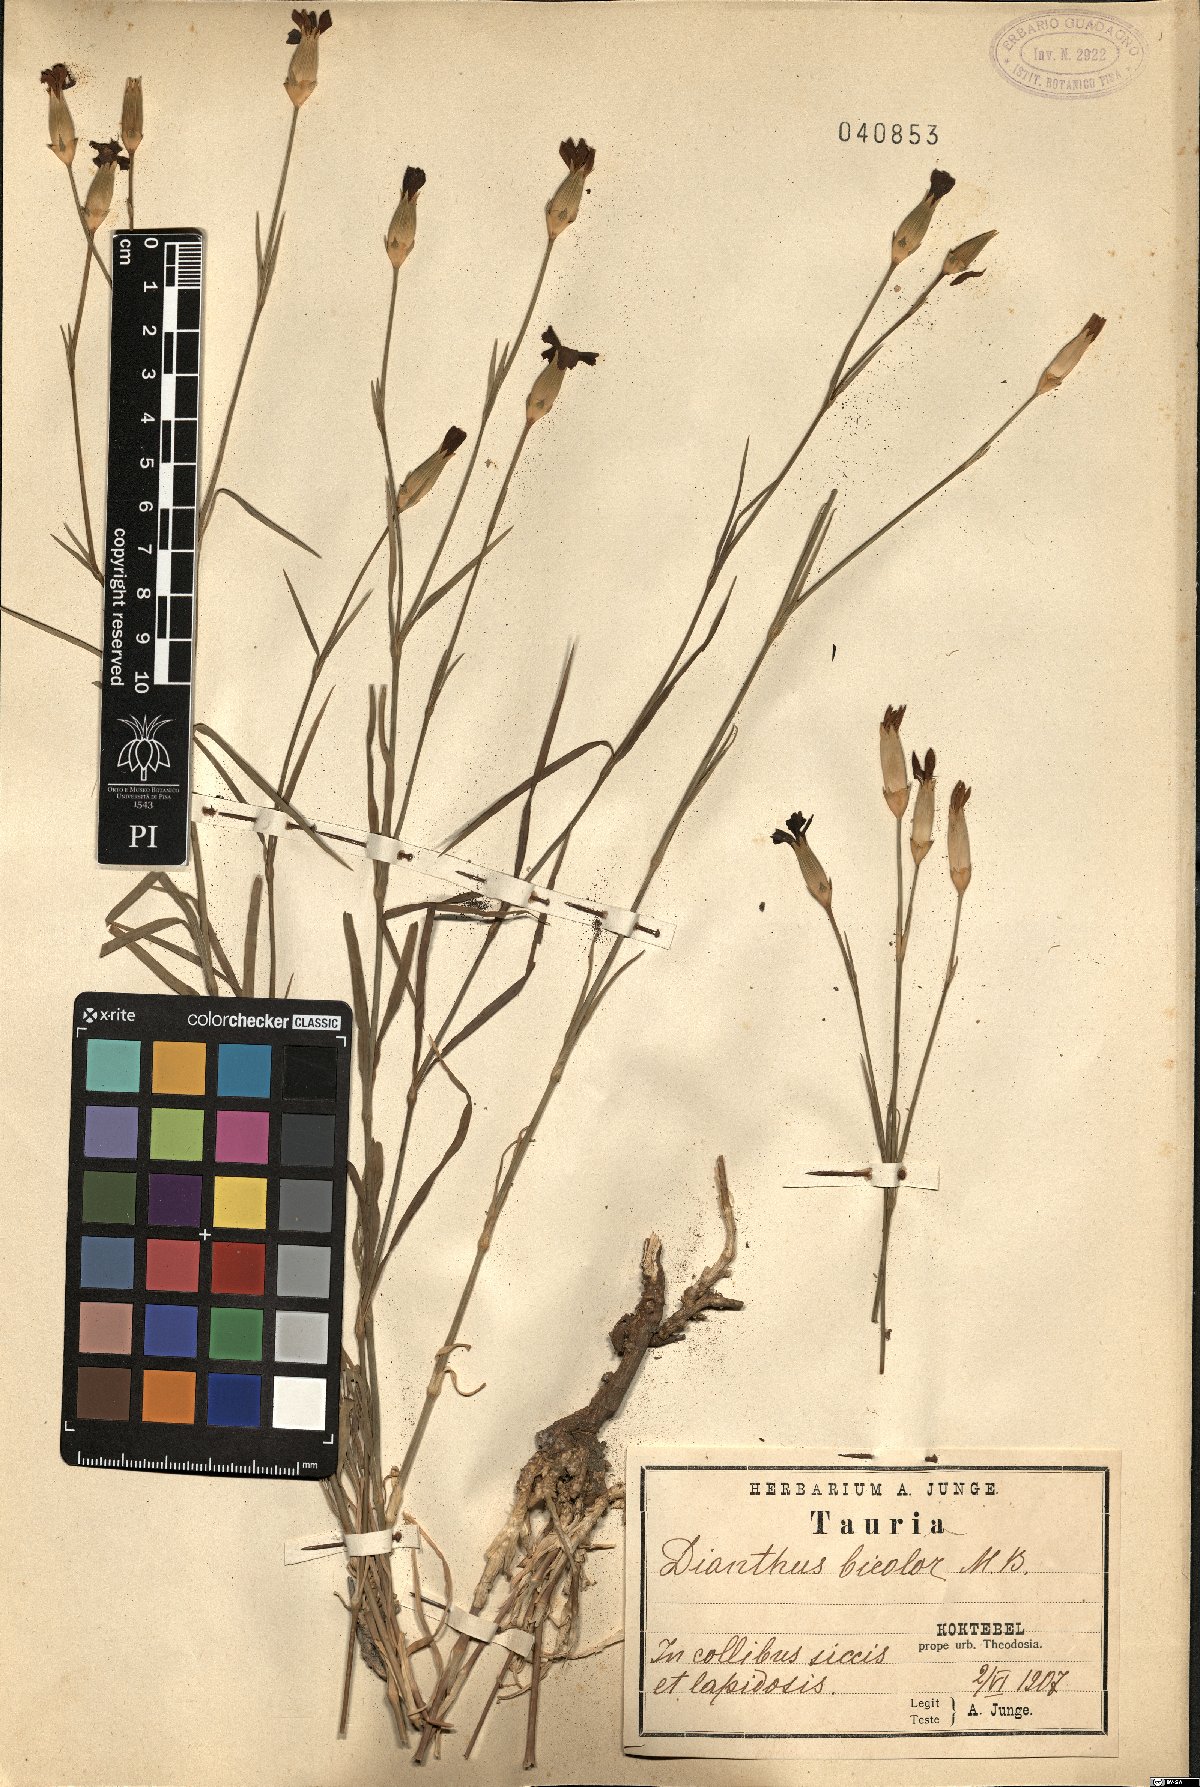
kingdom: Plantae
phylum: Tracheophyta
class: Magnoliopsida
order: Caryophyllales
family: Caryophyllaceae
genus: Dianthus
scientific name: Dianthus bicolor
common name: Bicolour pink
